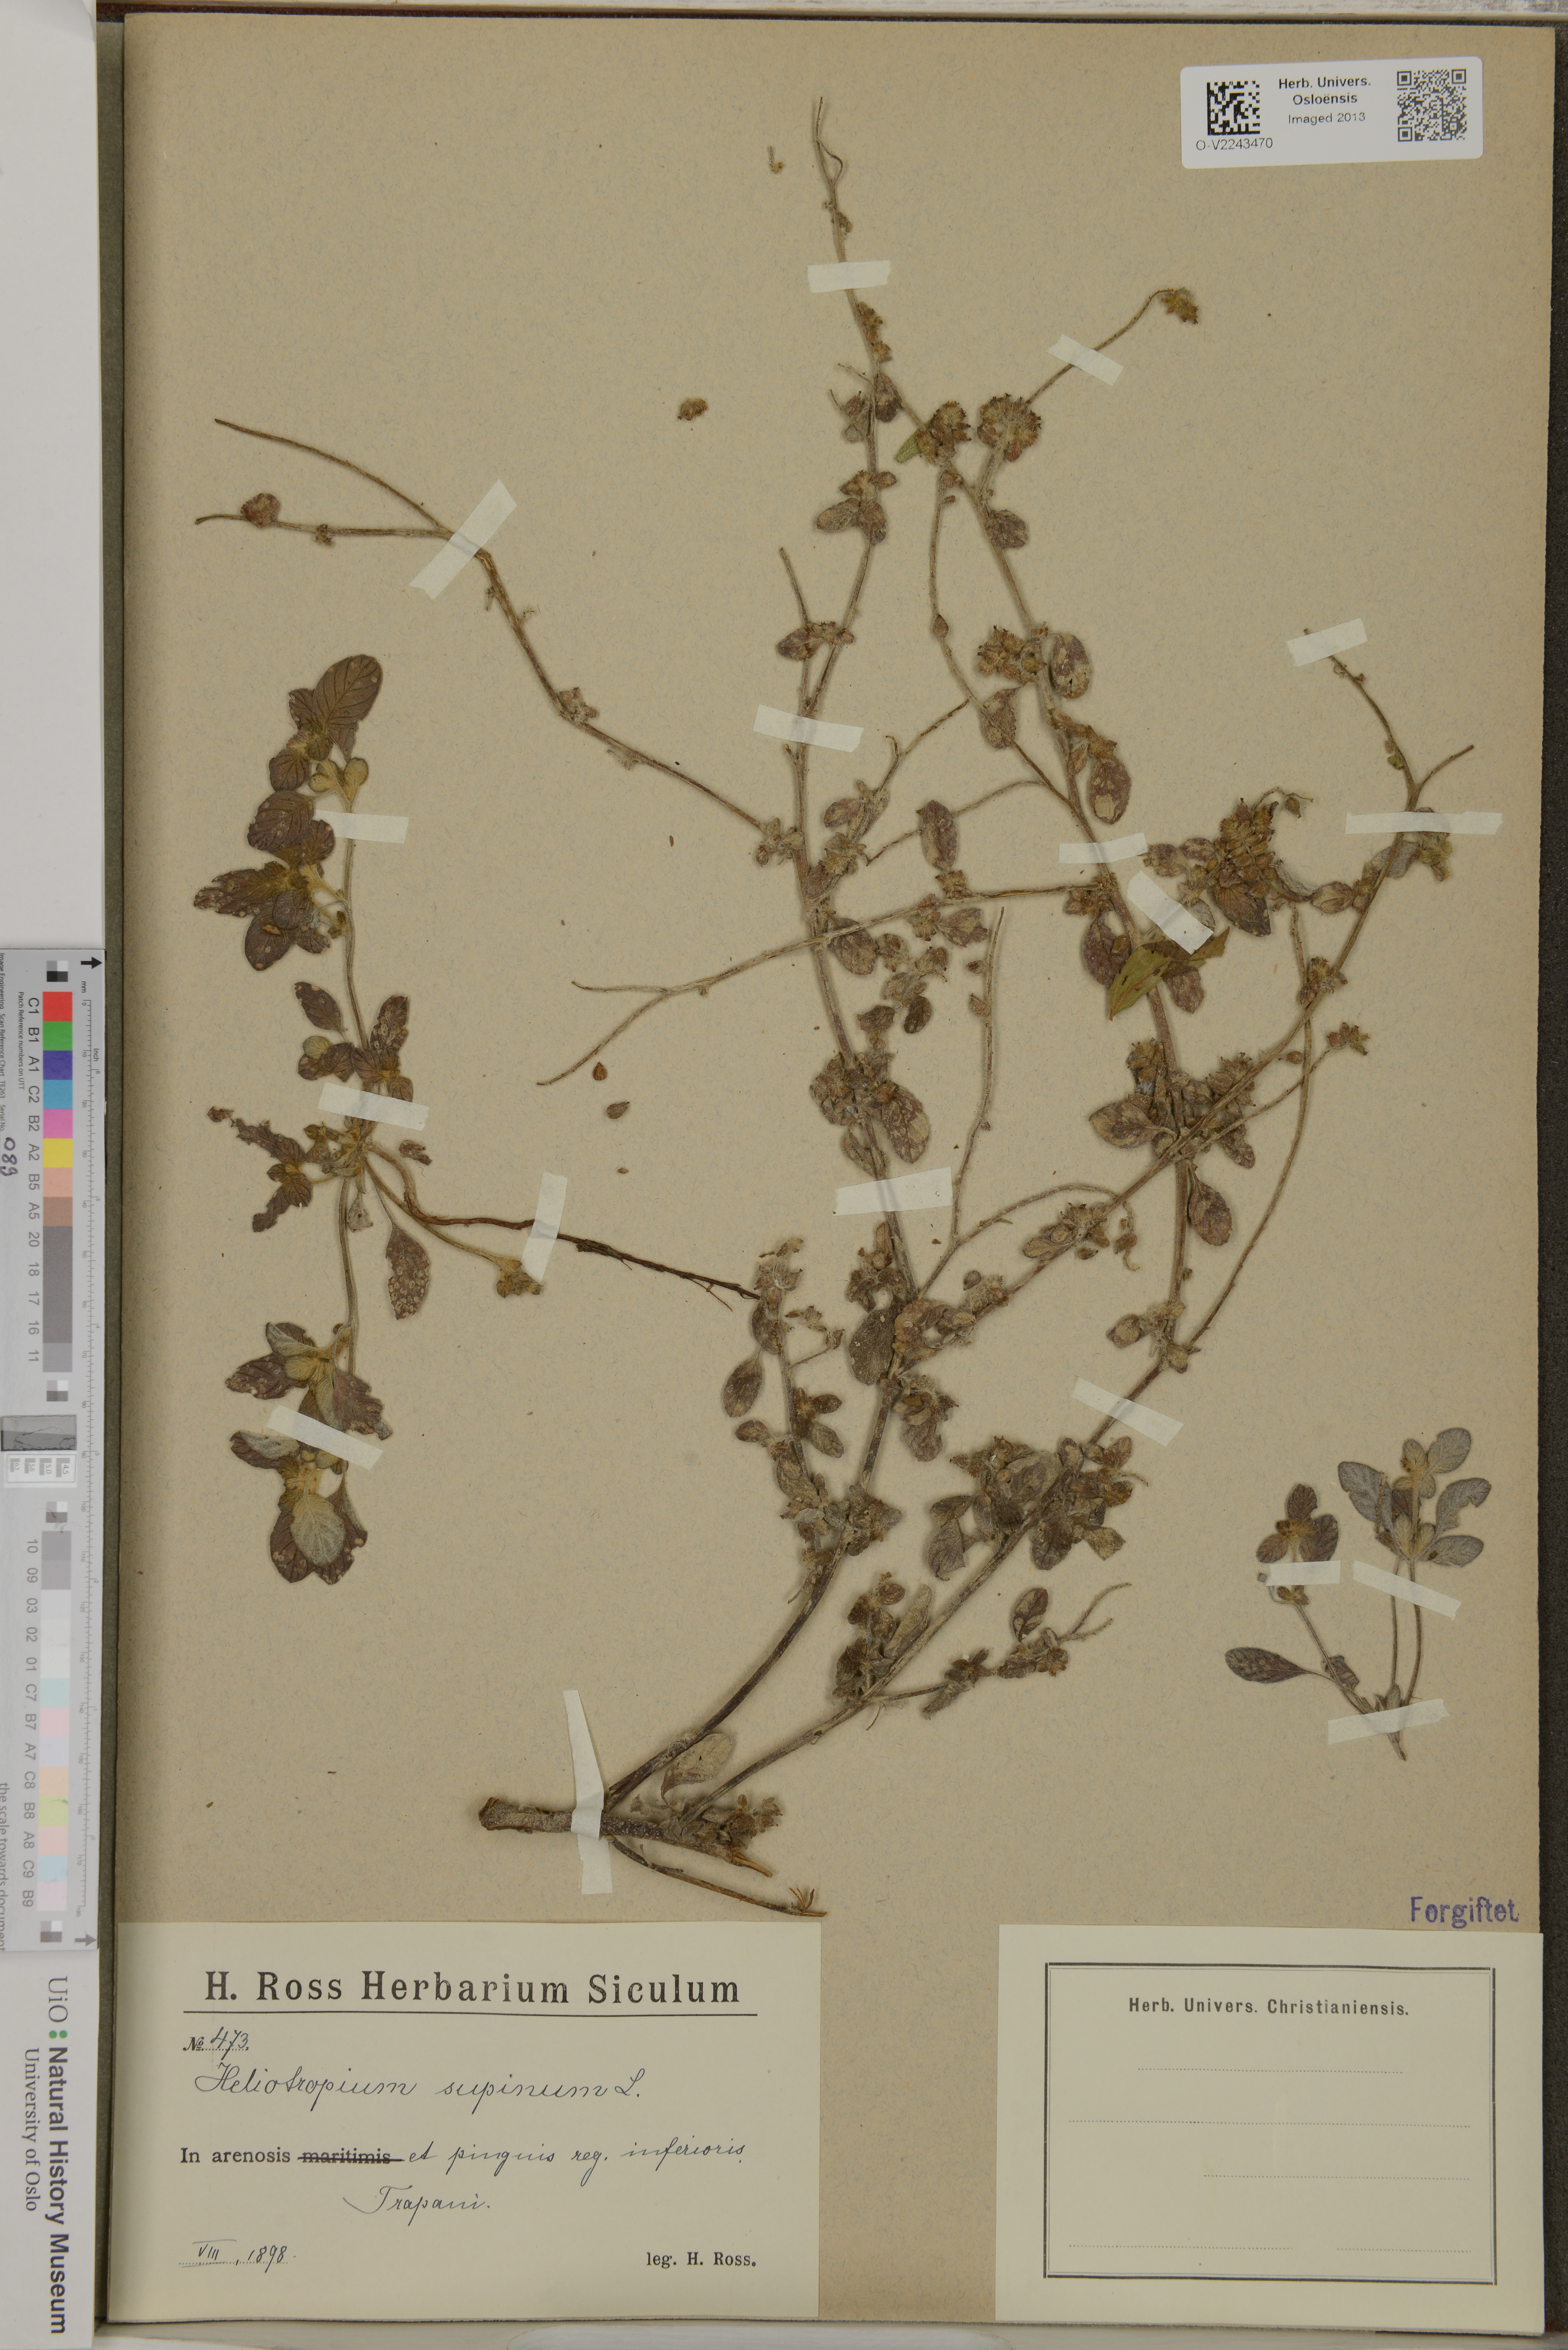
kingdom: Plantae
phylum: Tracheophyta
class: Magnoliopsida
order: Boraginales
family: Heliotropiaceae
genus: Heliotropium
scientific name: Heliotropium supinum
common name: Dwarf heliotrope
